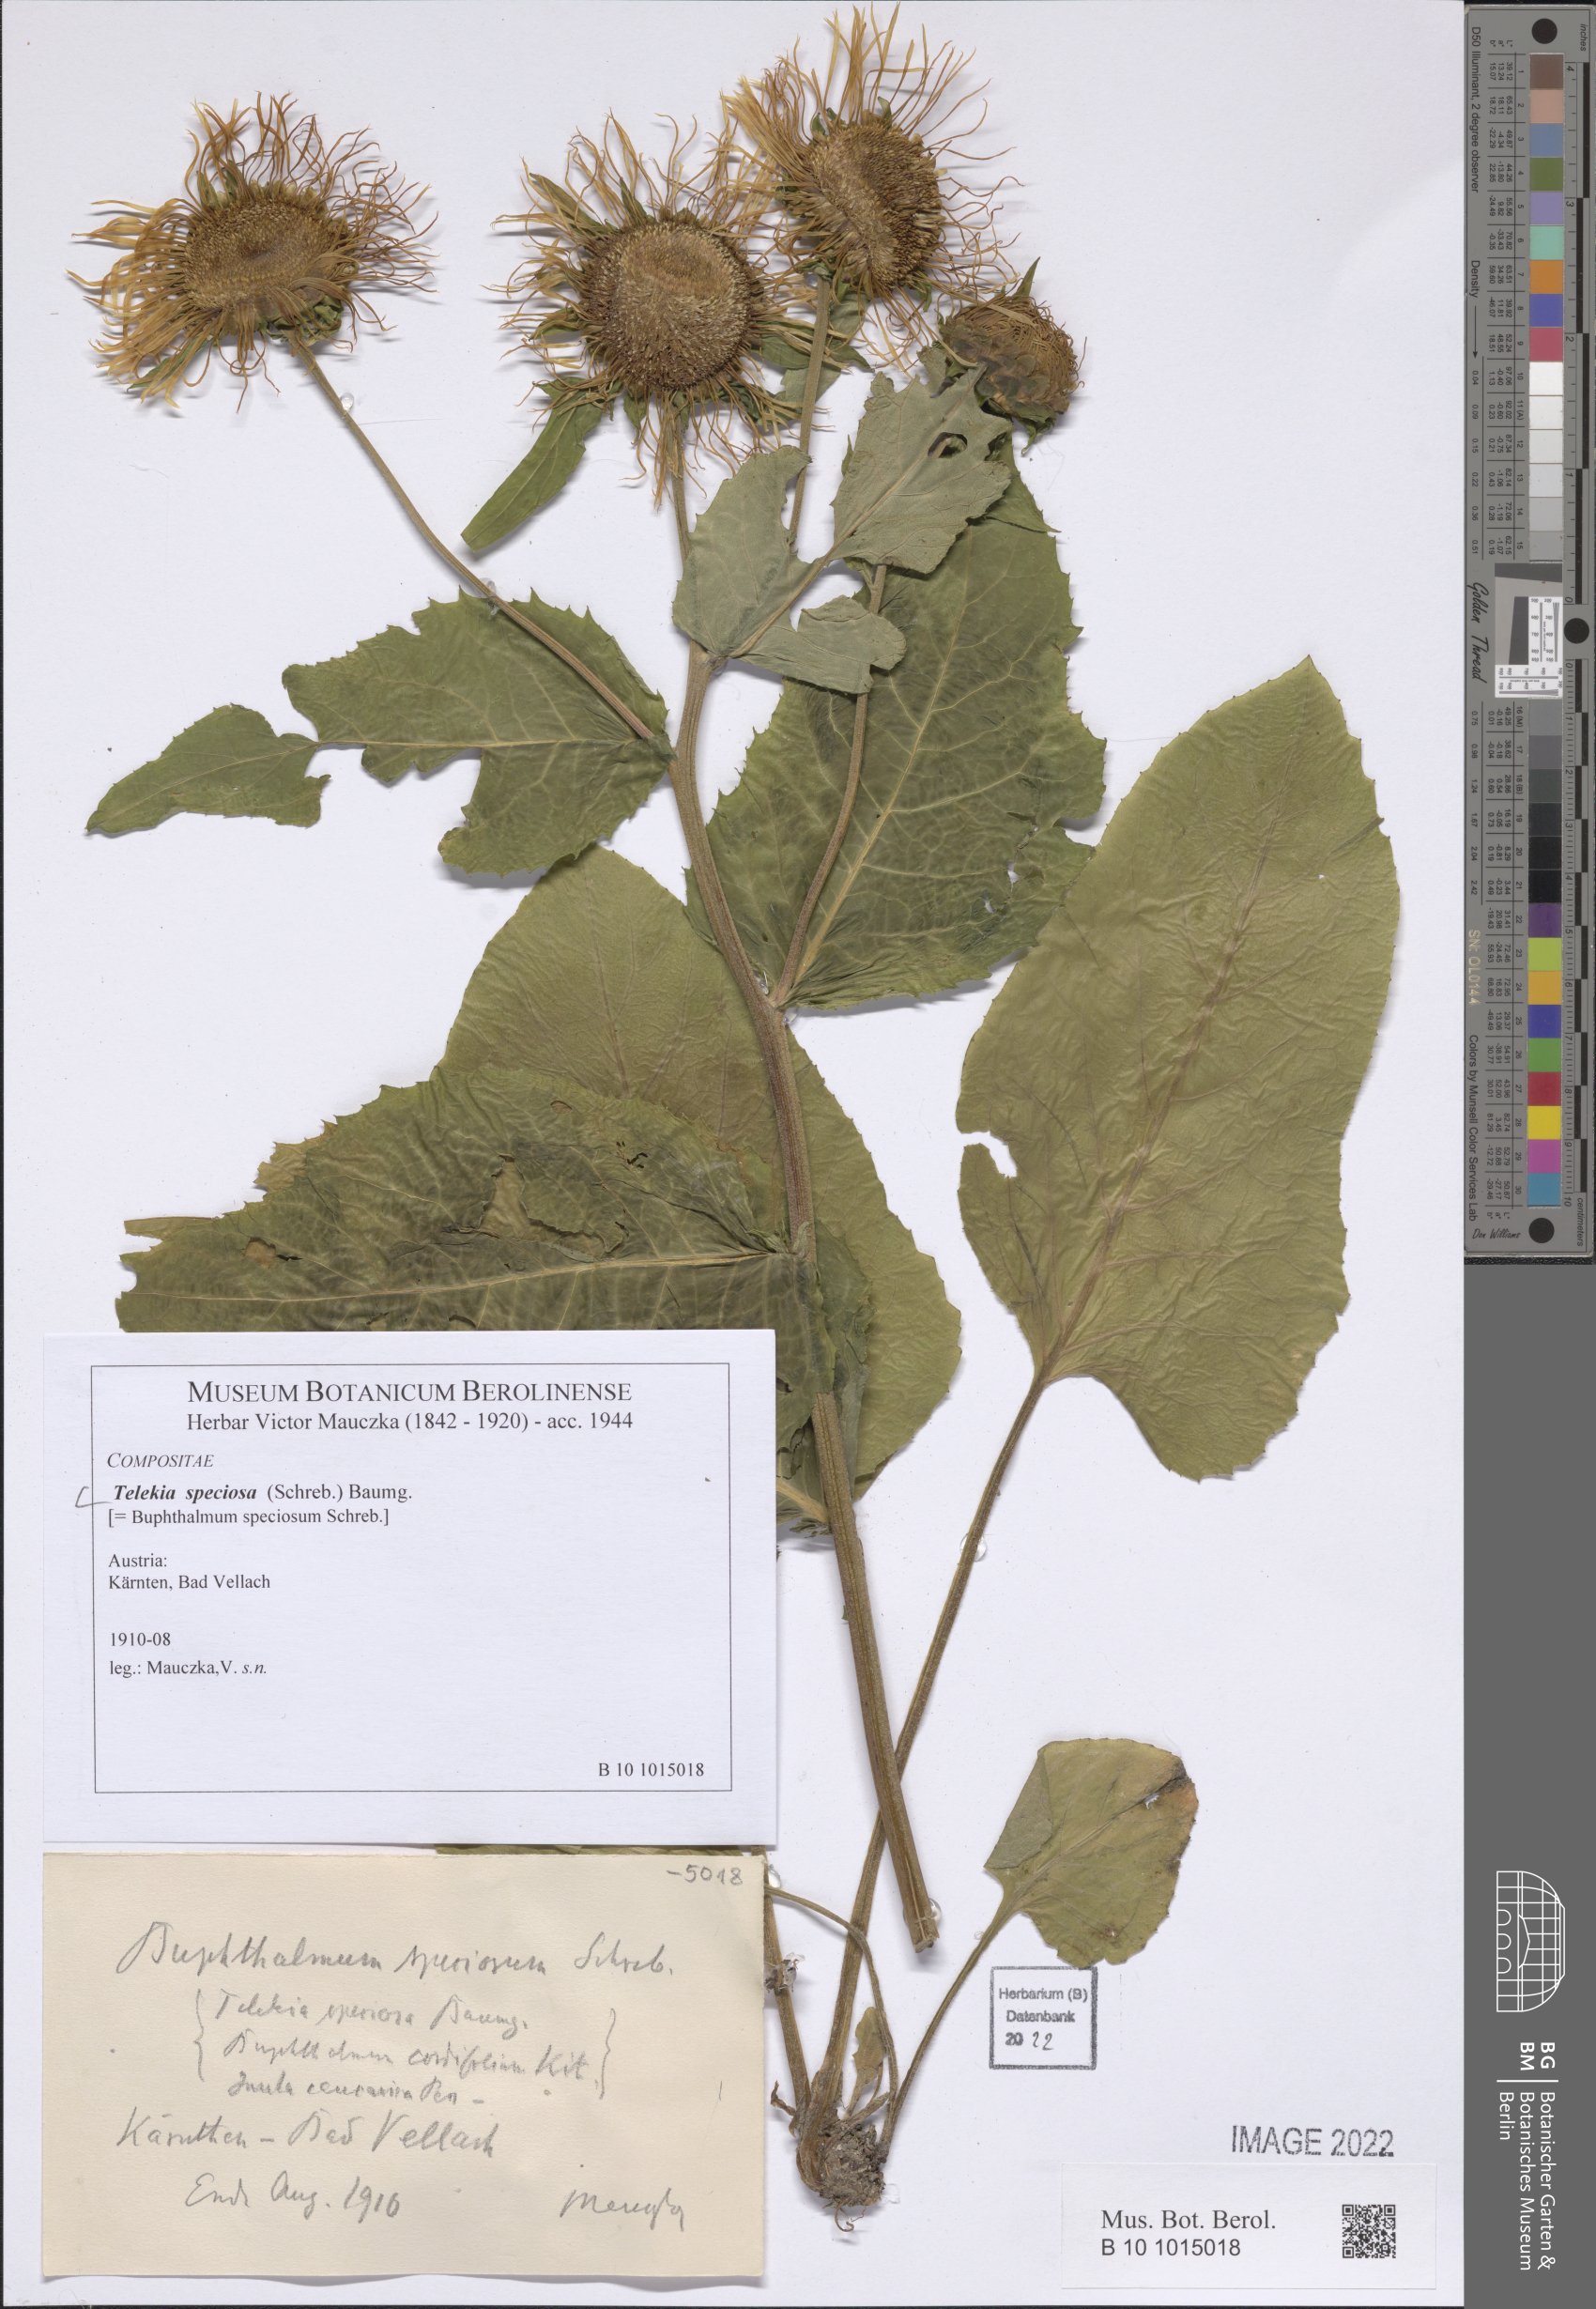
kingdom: Plantae
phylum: Tracheophyta
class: Magnoliopsida
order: Asterales
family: Asteraceae
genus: Telekia
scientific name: Telekia speciosa
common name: Yellow oxeye
